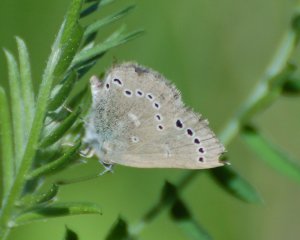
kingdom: Animalia
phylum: Arthropoda
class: Insecta
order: Lepidoptera
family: Lycaenidae
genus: Glaucopsyche
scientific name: Glaucopsyche lygdamus
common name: Silvery Blue
